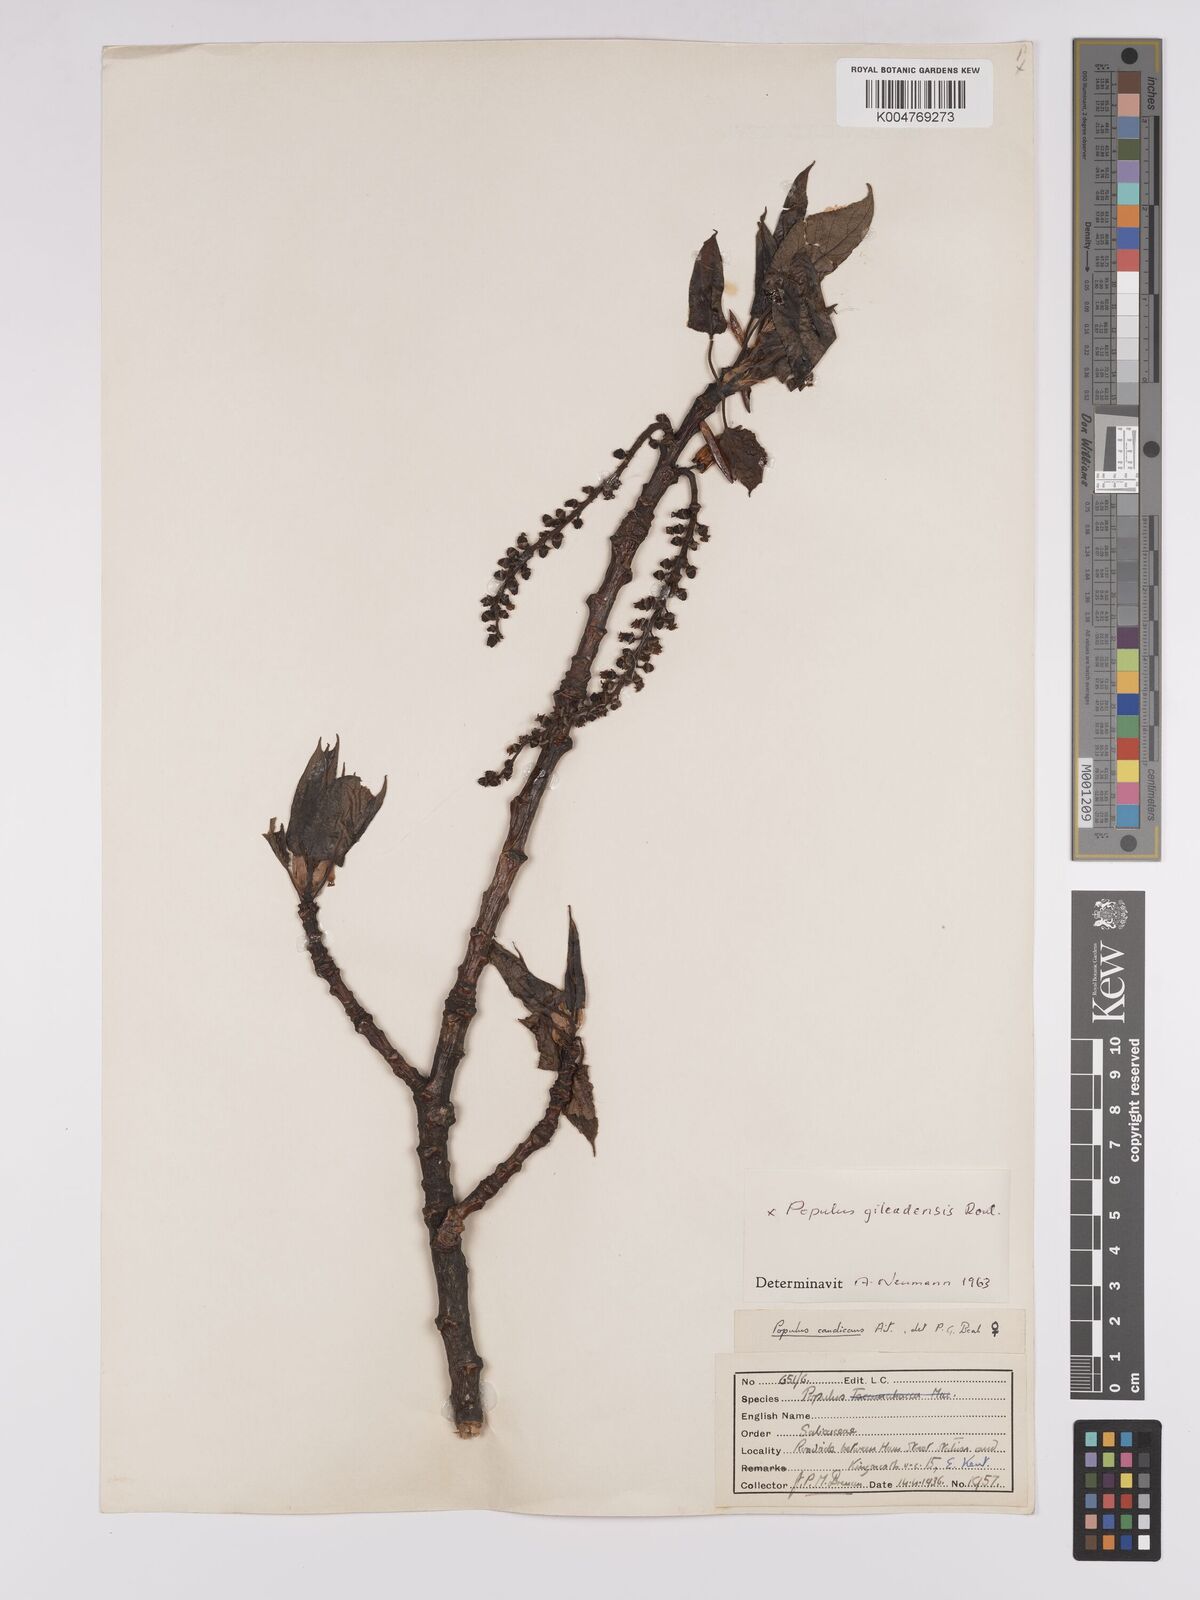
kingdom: Plantae
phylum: Tracheophyta
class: Magnoliopsida
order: Malpighiales
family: Salicaceae
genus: Populus
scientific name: Populus jackii
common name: Balm-of-gilead
